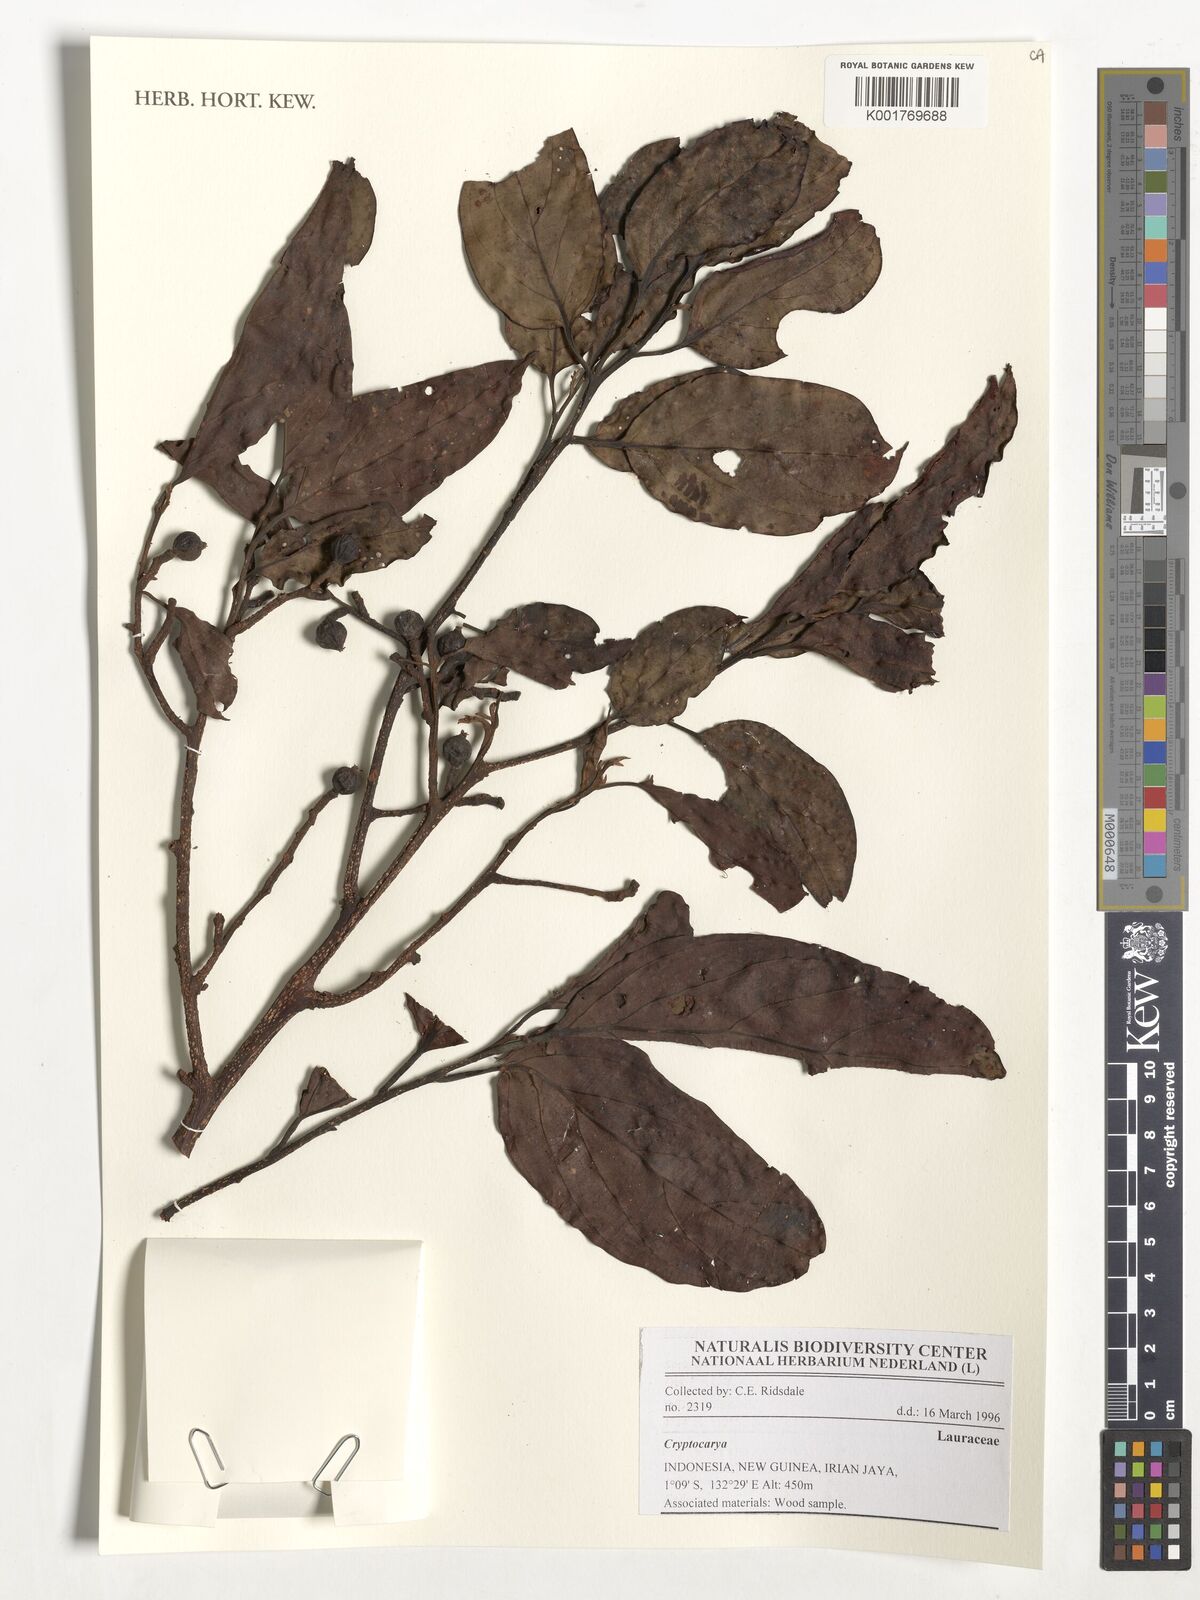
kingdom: Plantae
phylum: Tracheophyta
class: Magnoliopsida
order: Laurales
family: Lauraceae
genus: Cryptocarya
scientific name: Cryptocarya
